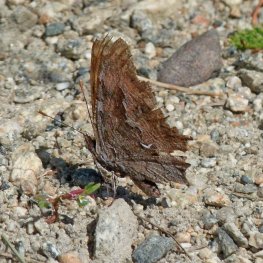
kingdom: Animalia
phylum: Arthropoda
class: Insecta
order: Lepidoptera
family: Nymphalidae
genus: Polygonia
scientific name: Polygonia gracilis
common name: Hoary Comma
